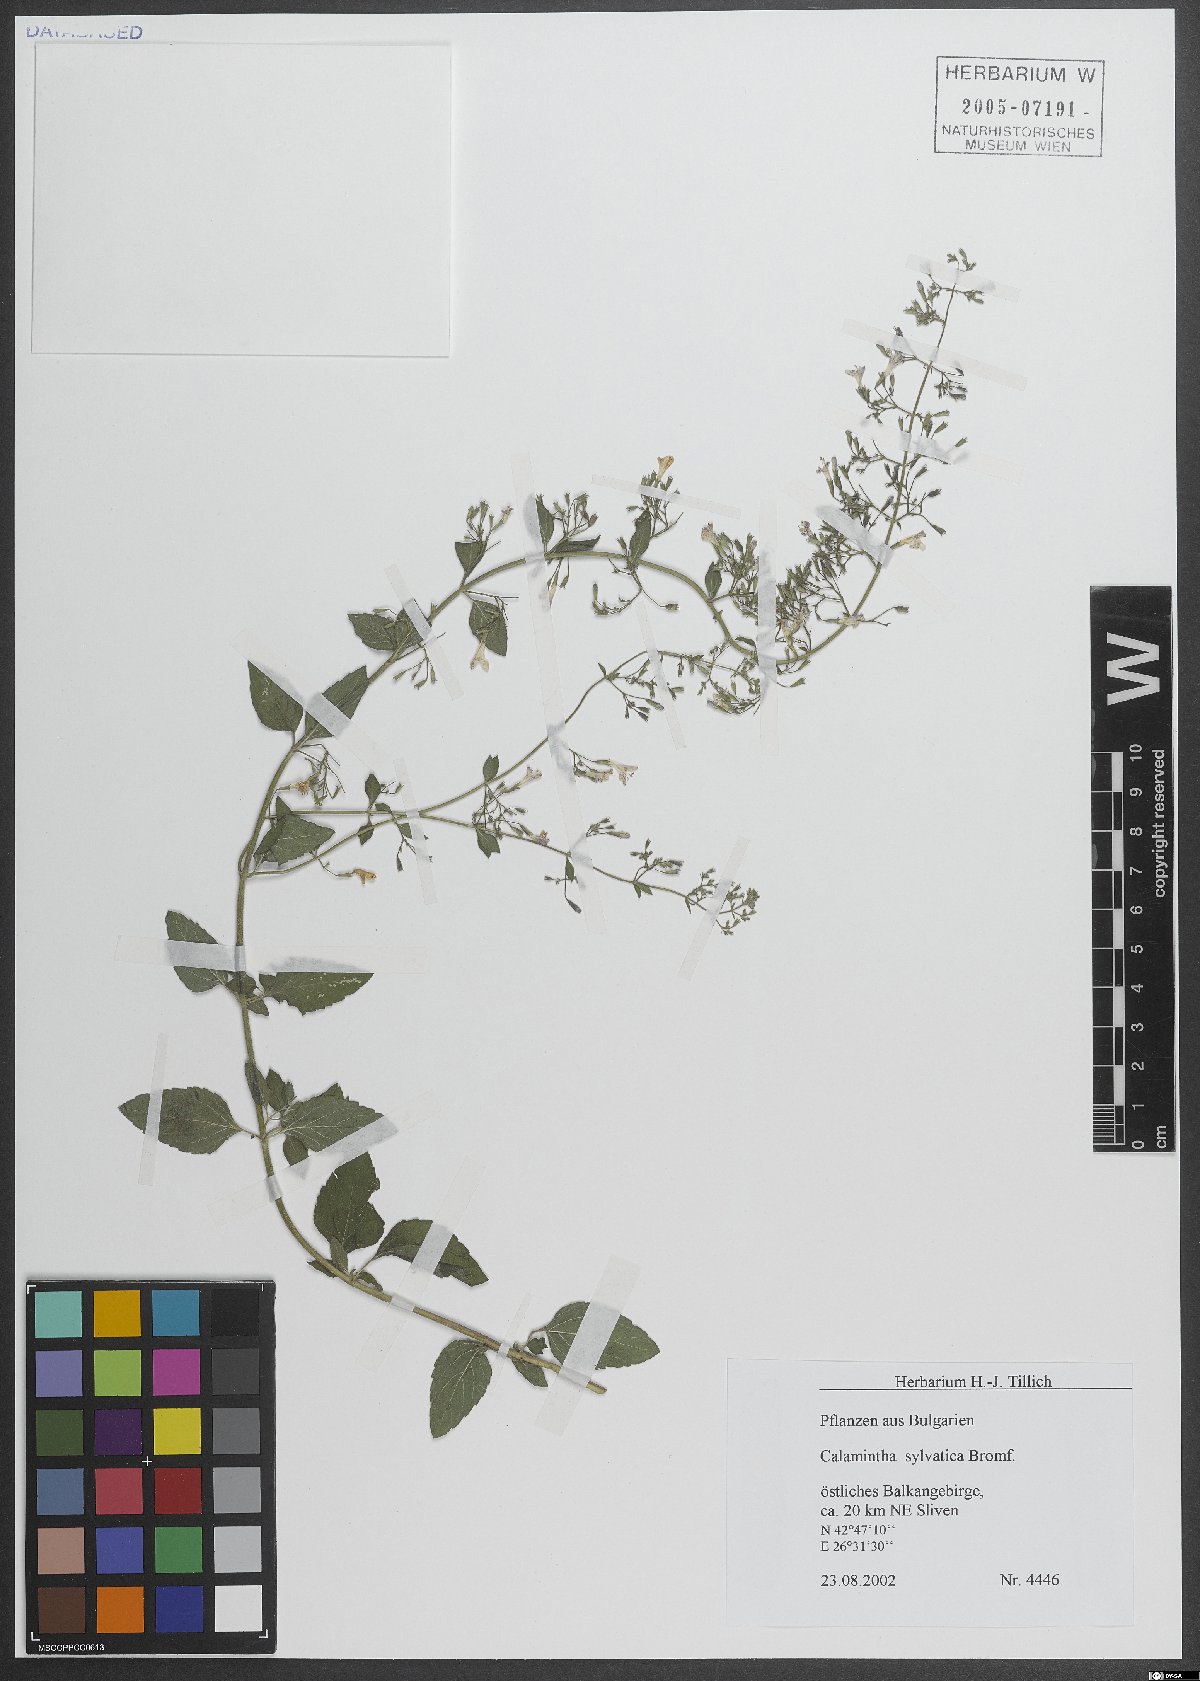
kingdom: Plantae
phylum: Tracheophyta
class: Magnoliopsida
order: Lamiales
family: Lamiaceae
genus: Clinopodium
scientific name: Clinopodium menthifolium
